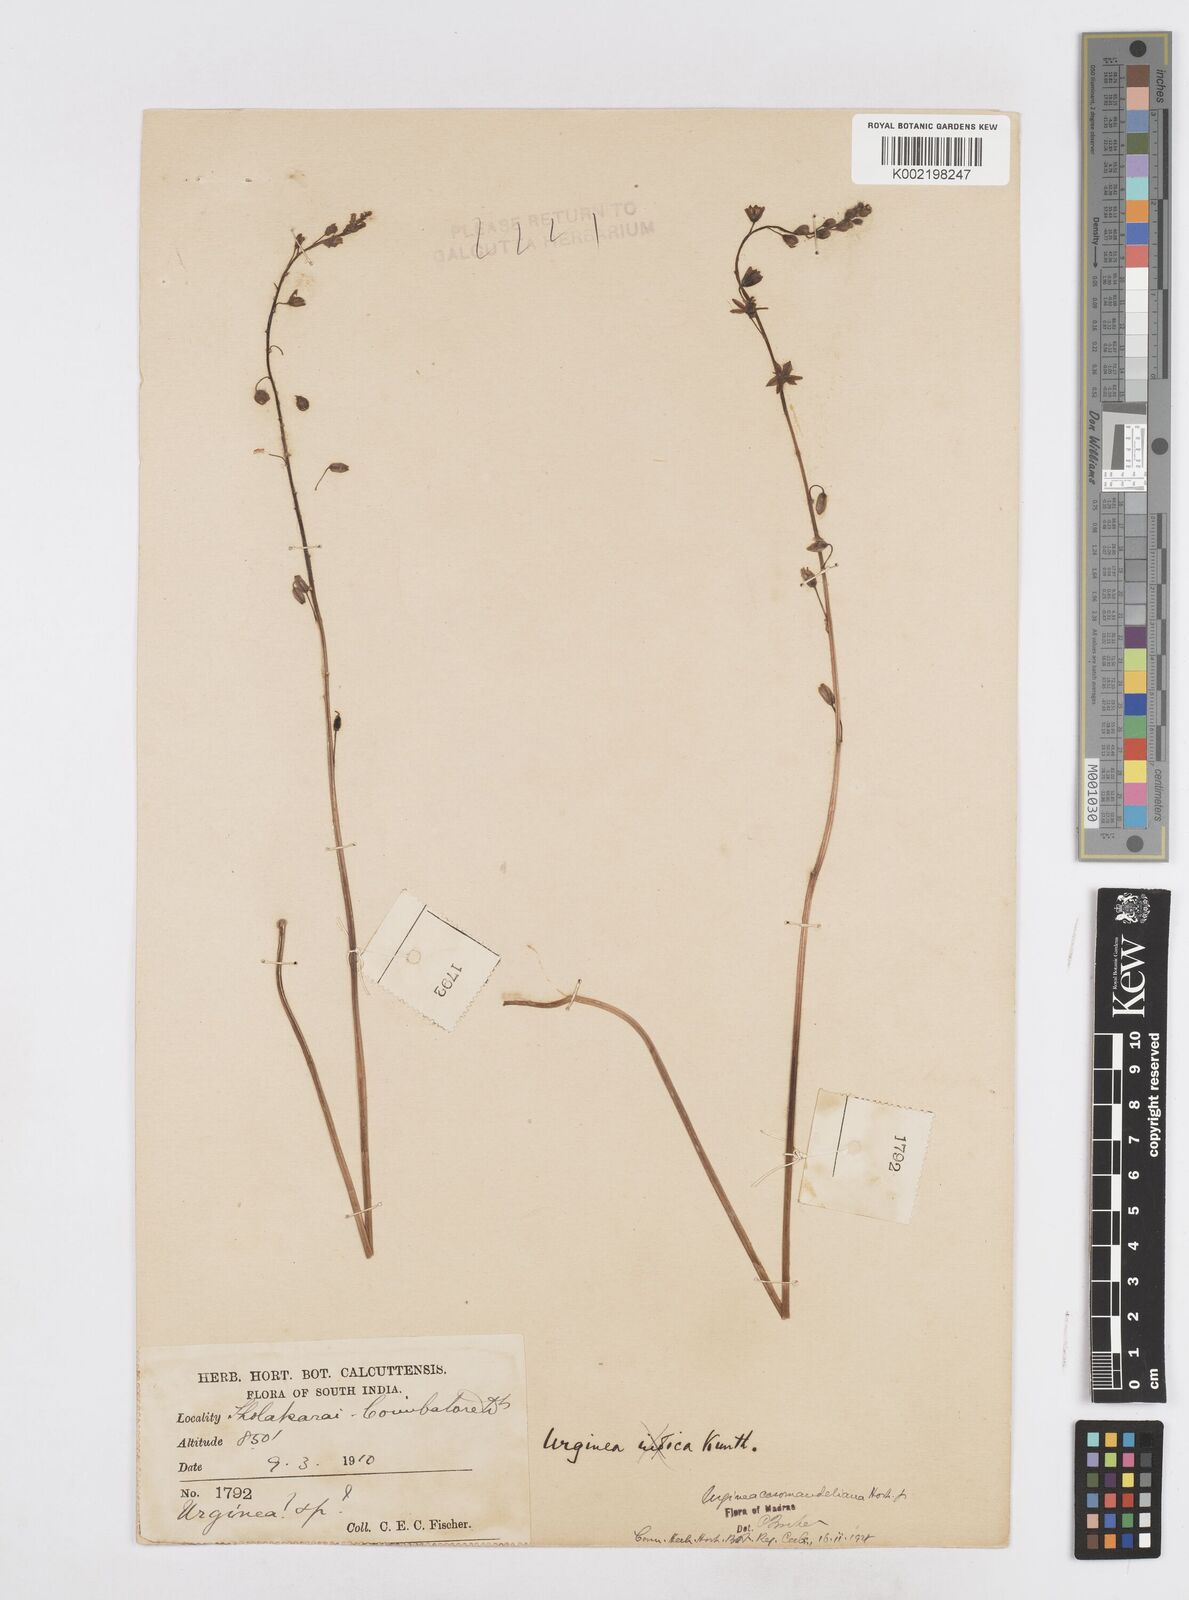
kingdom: Plantae
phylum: Tracheophyta
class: Liliopsida
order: Asparagales
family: Asparagaceae
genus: Drimia
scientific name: Drimia coromandeliana
